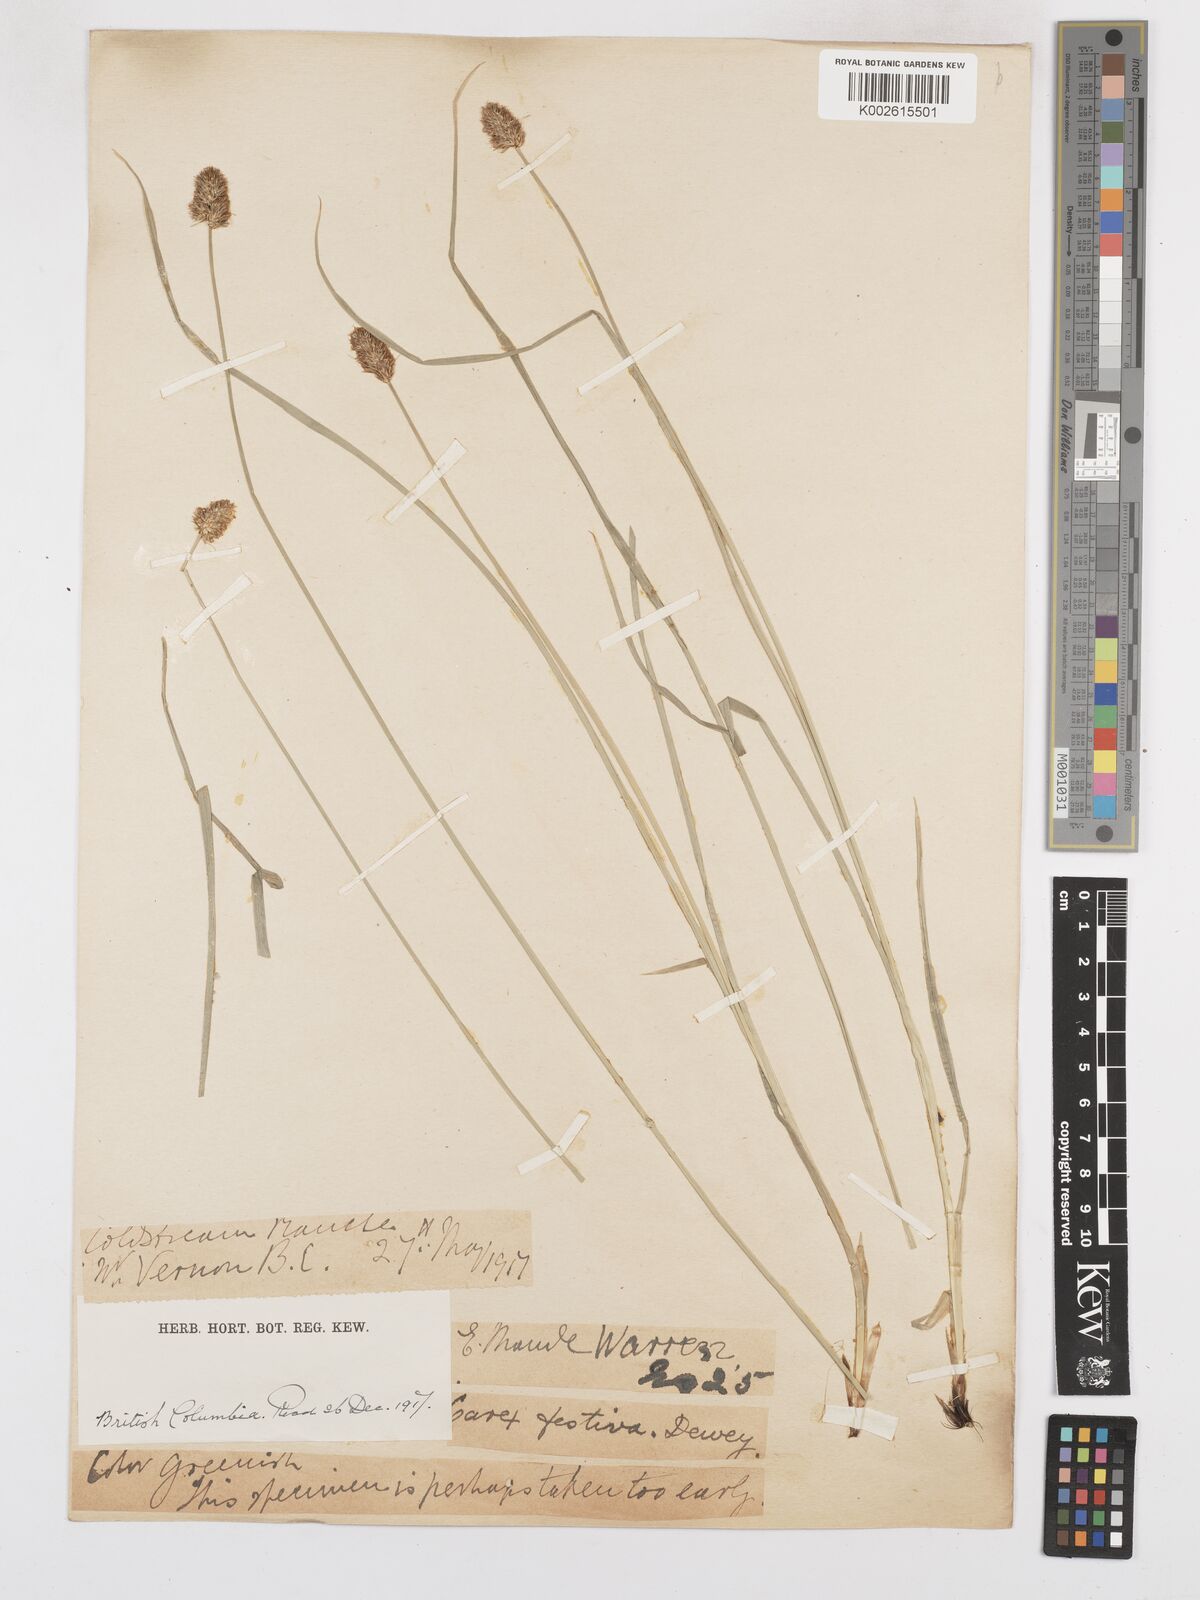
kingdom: Plantae
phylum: Tracheophyta
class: Liliopsida
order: Poales
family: Cyperaceae
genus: Carex
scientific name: Carex macloviana
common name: Falkland island sedge
